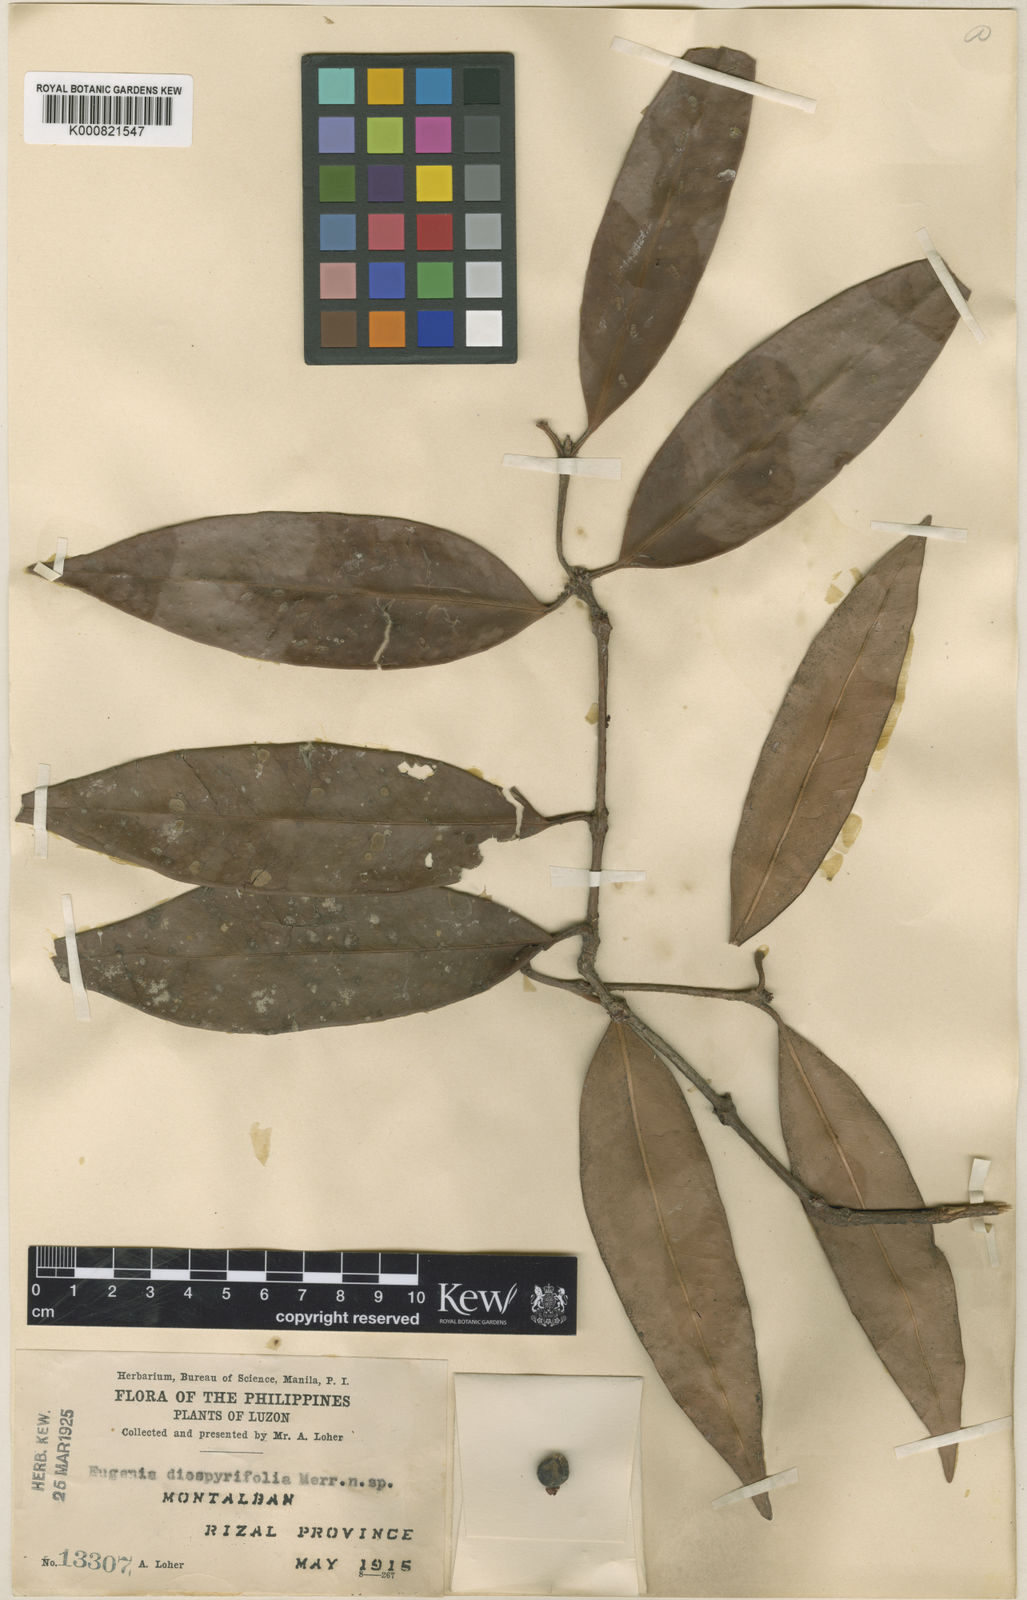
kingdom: Plantae
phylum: Tracheophyta
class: Magnoliopsida
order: Myrtales
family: Myrtaceae
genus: Eugenia
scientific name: Eugenia montalbanica
